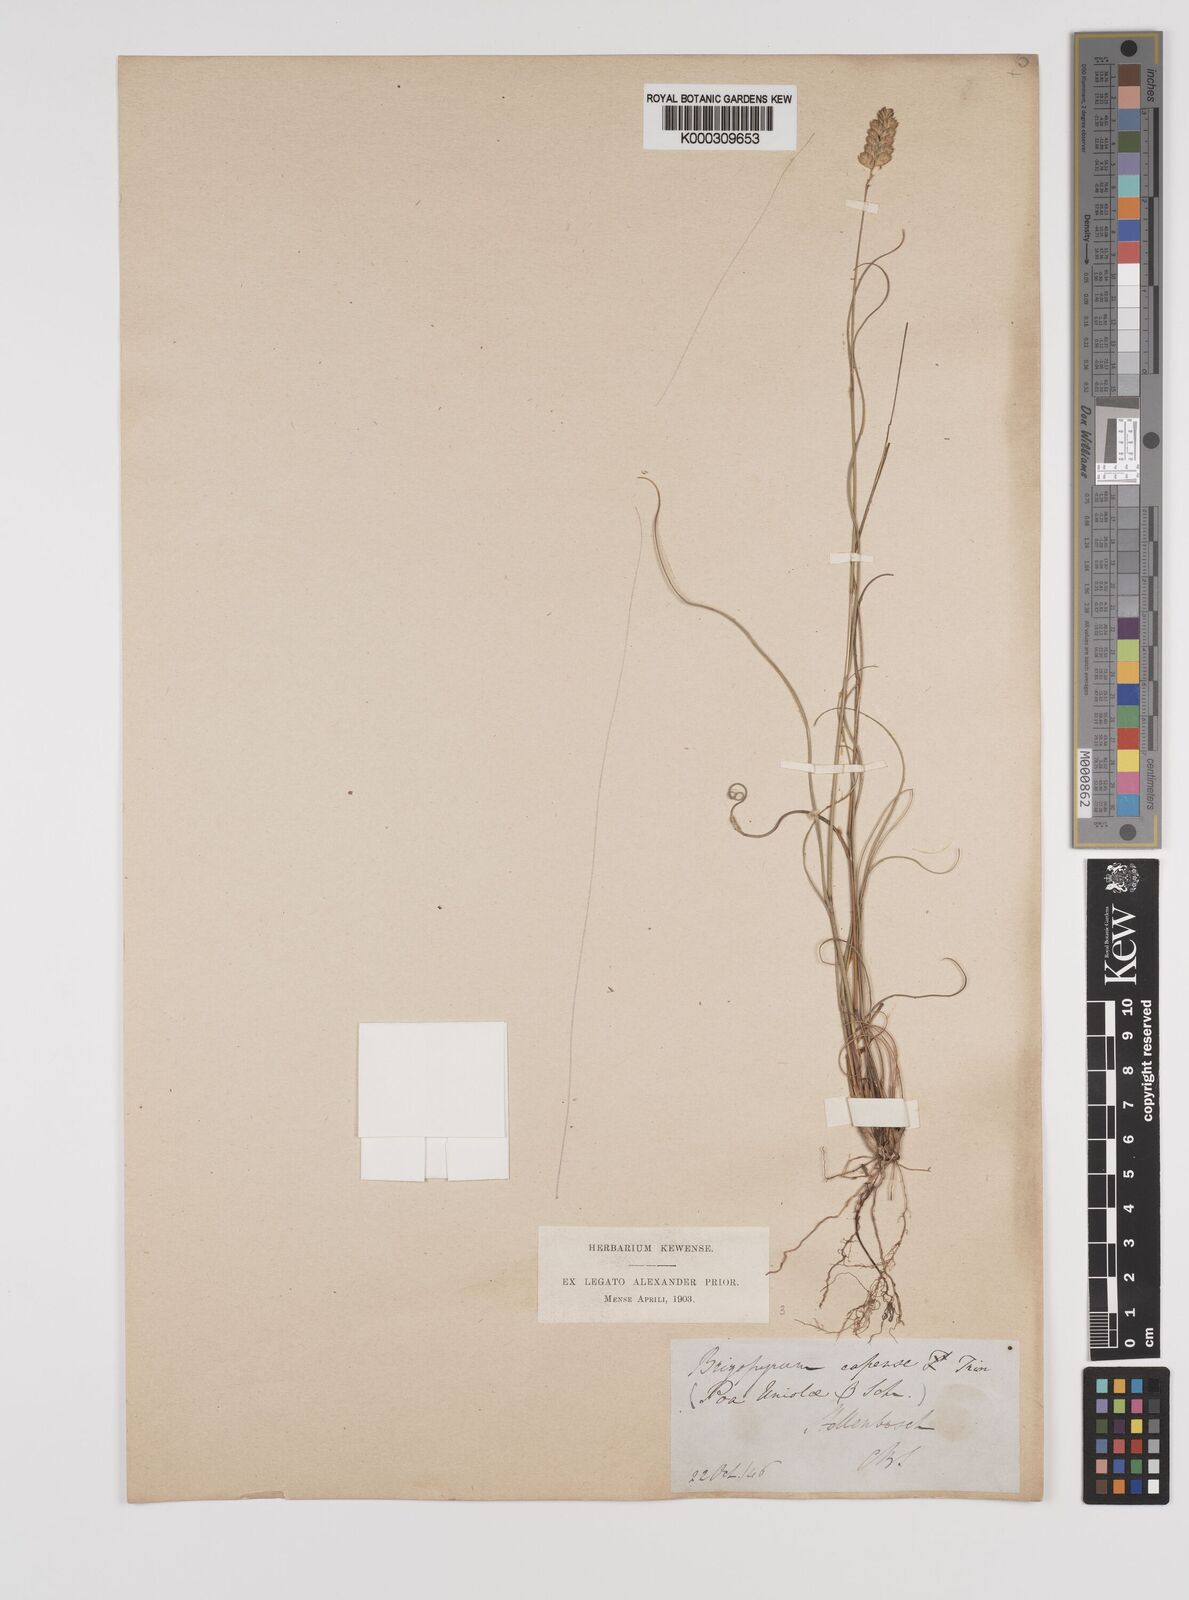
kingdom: Plantae
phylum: Tracheophyta
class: Liliopsida
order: Poales
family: Poaceae
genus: Tribolium
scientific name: Tribolium uniolae
